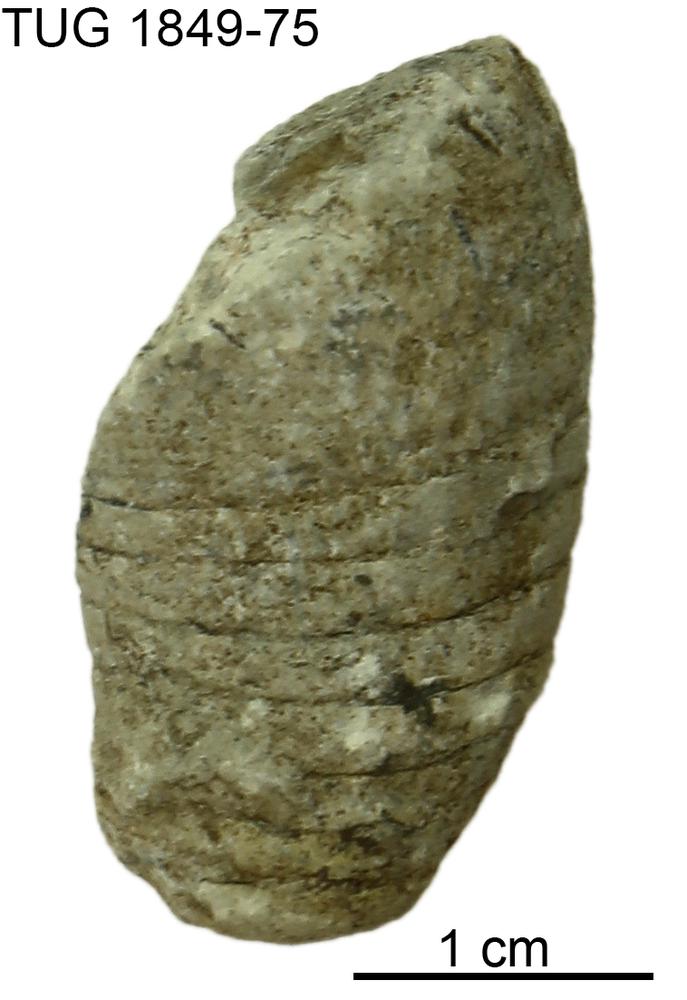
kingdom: Animalia
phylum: Mollusca
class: Cephalopoda
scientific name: Cephalopoda
